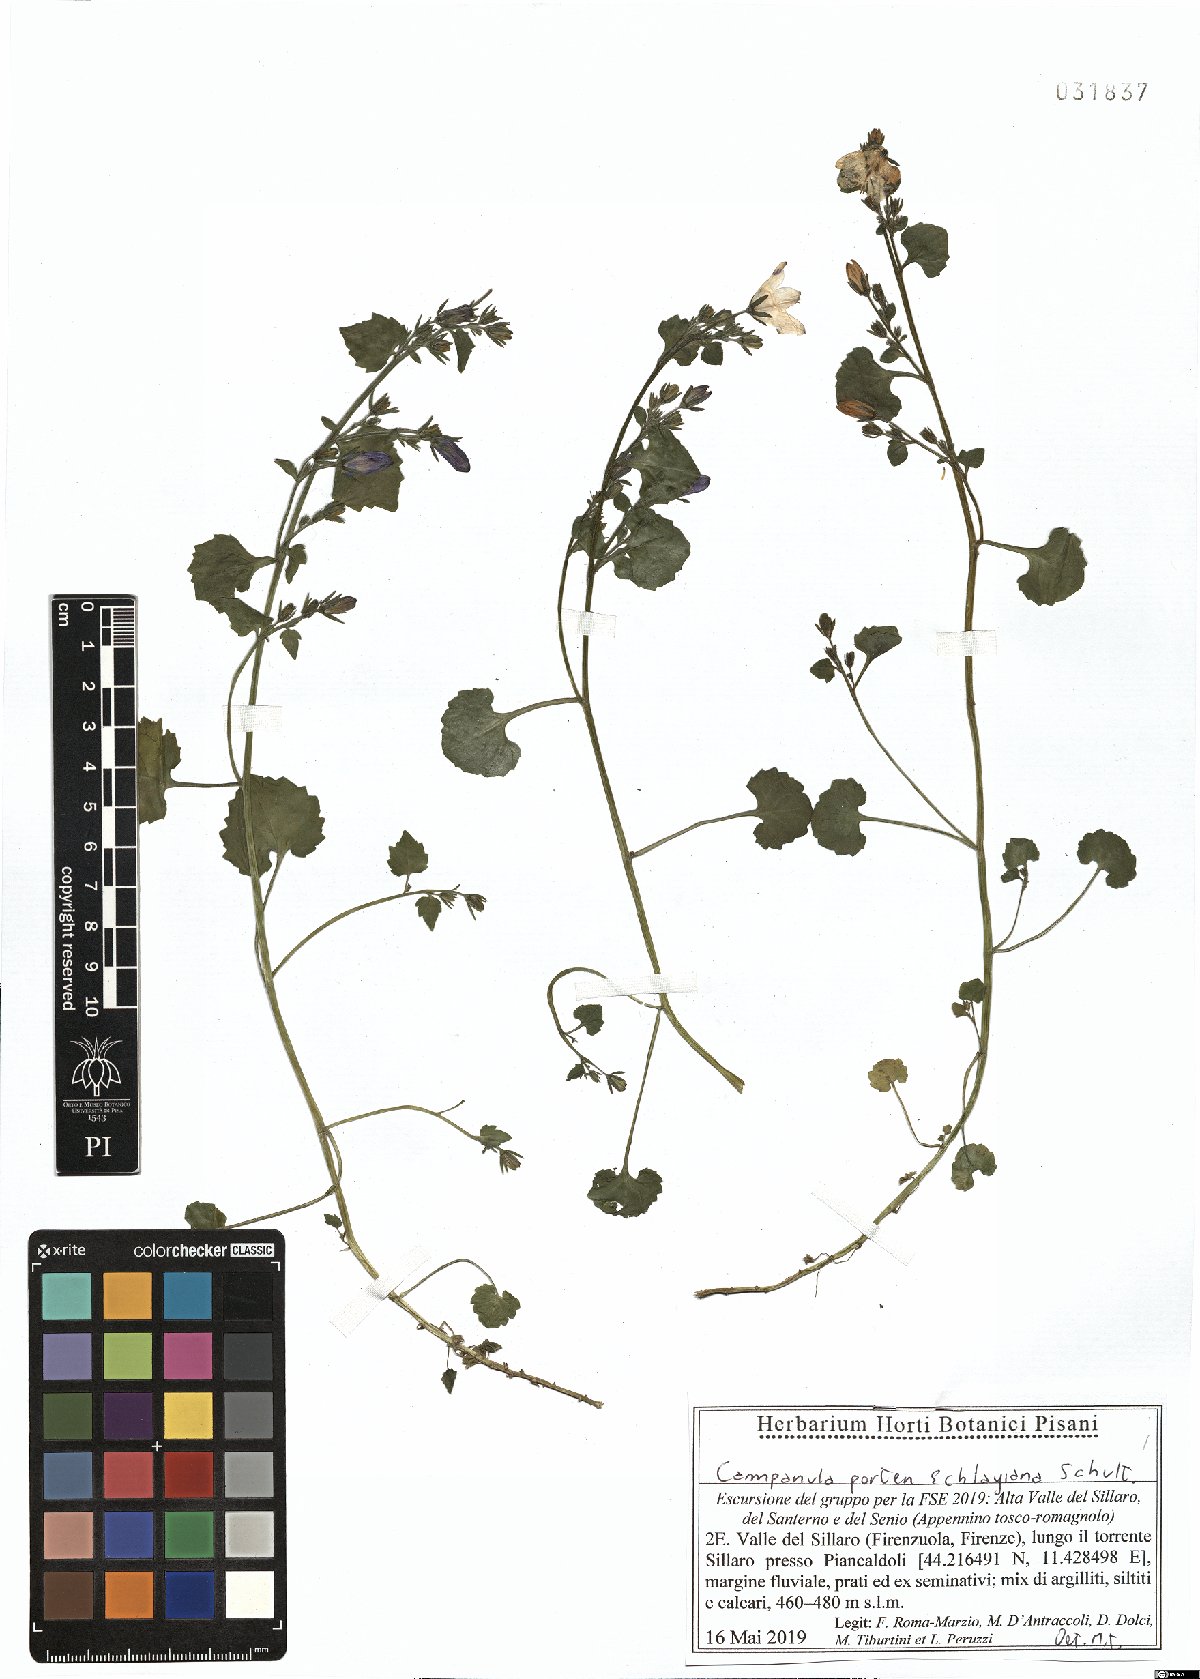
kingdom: Plantae
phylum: Tracheophyta
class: Magnoliopsida
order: Asterales
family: Campanulaceae
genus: Campanula
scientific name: Campanula portenschlagiana
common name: Adria bellflower
